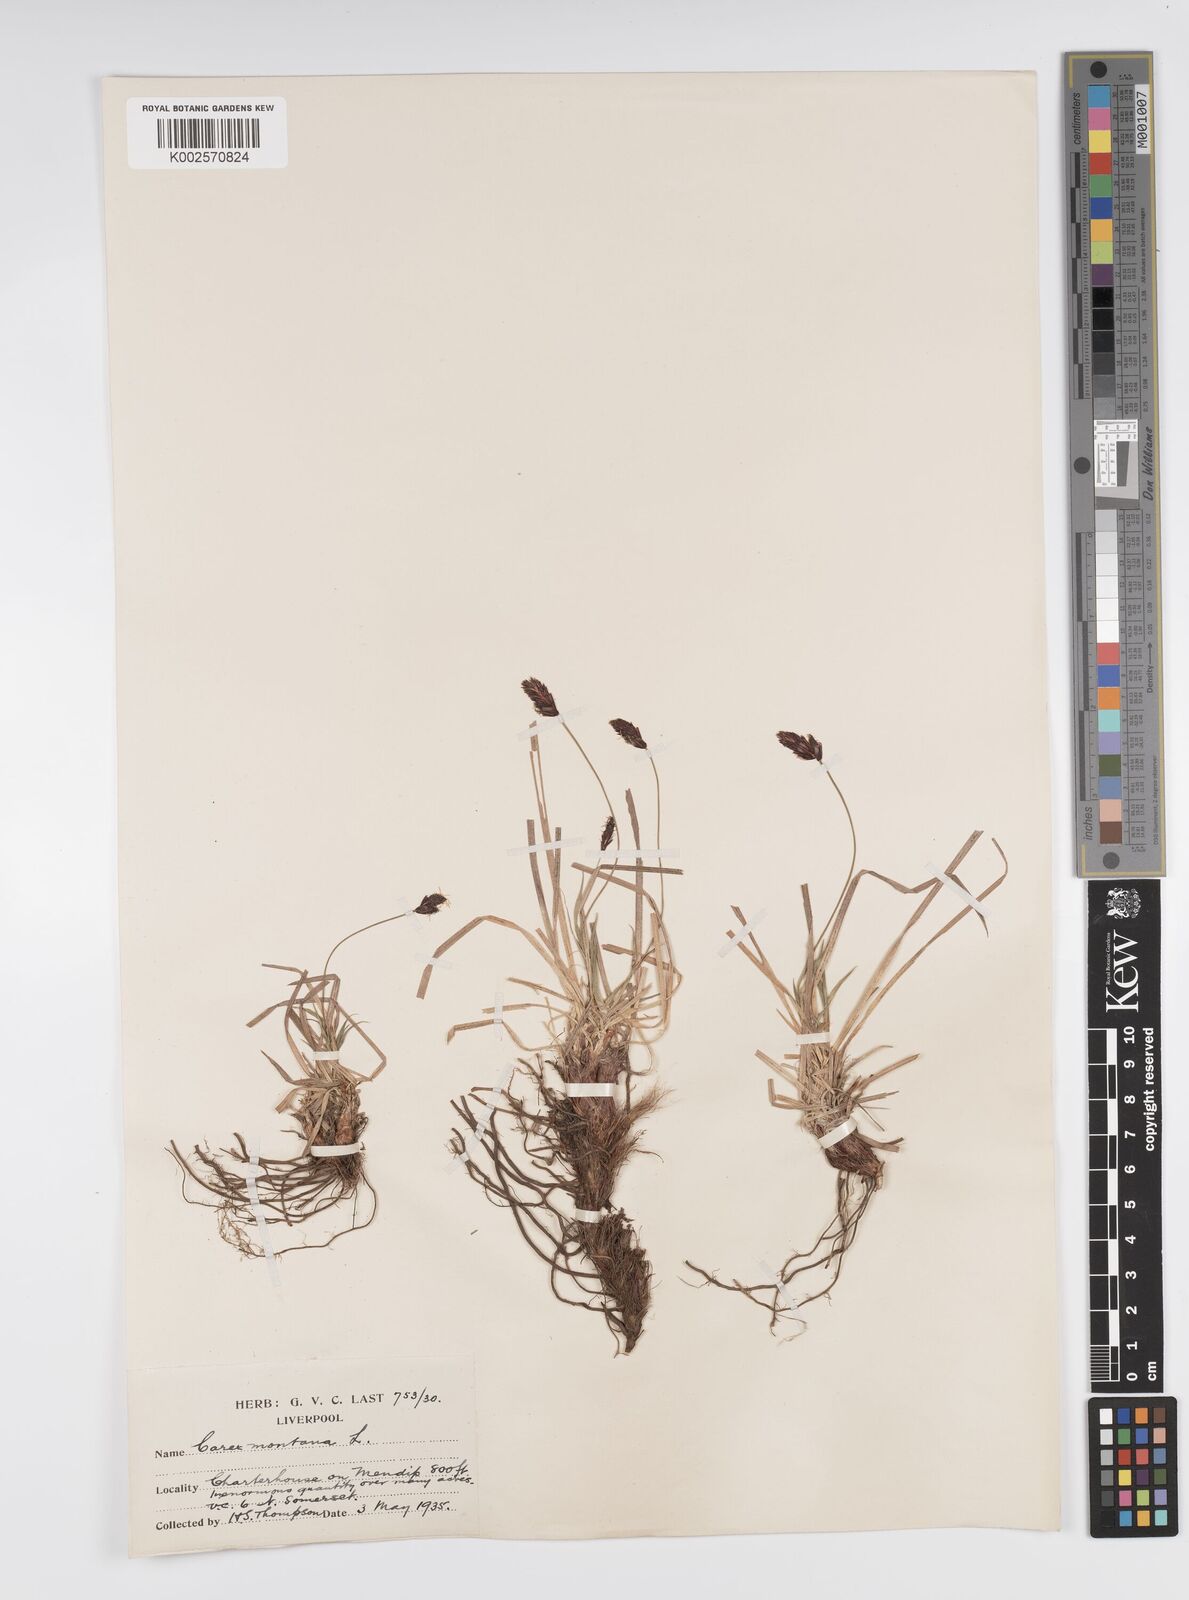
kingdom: Plantae
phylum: Tracheophyta
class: Liliopsida
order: Poales
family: Cyperaceae
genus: Carex
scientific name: Carex montana
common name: Soft-leaved sedge
